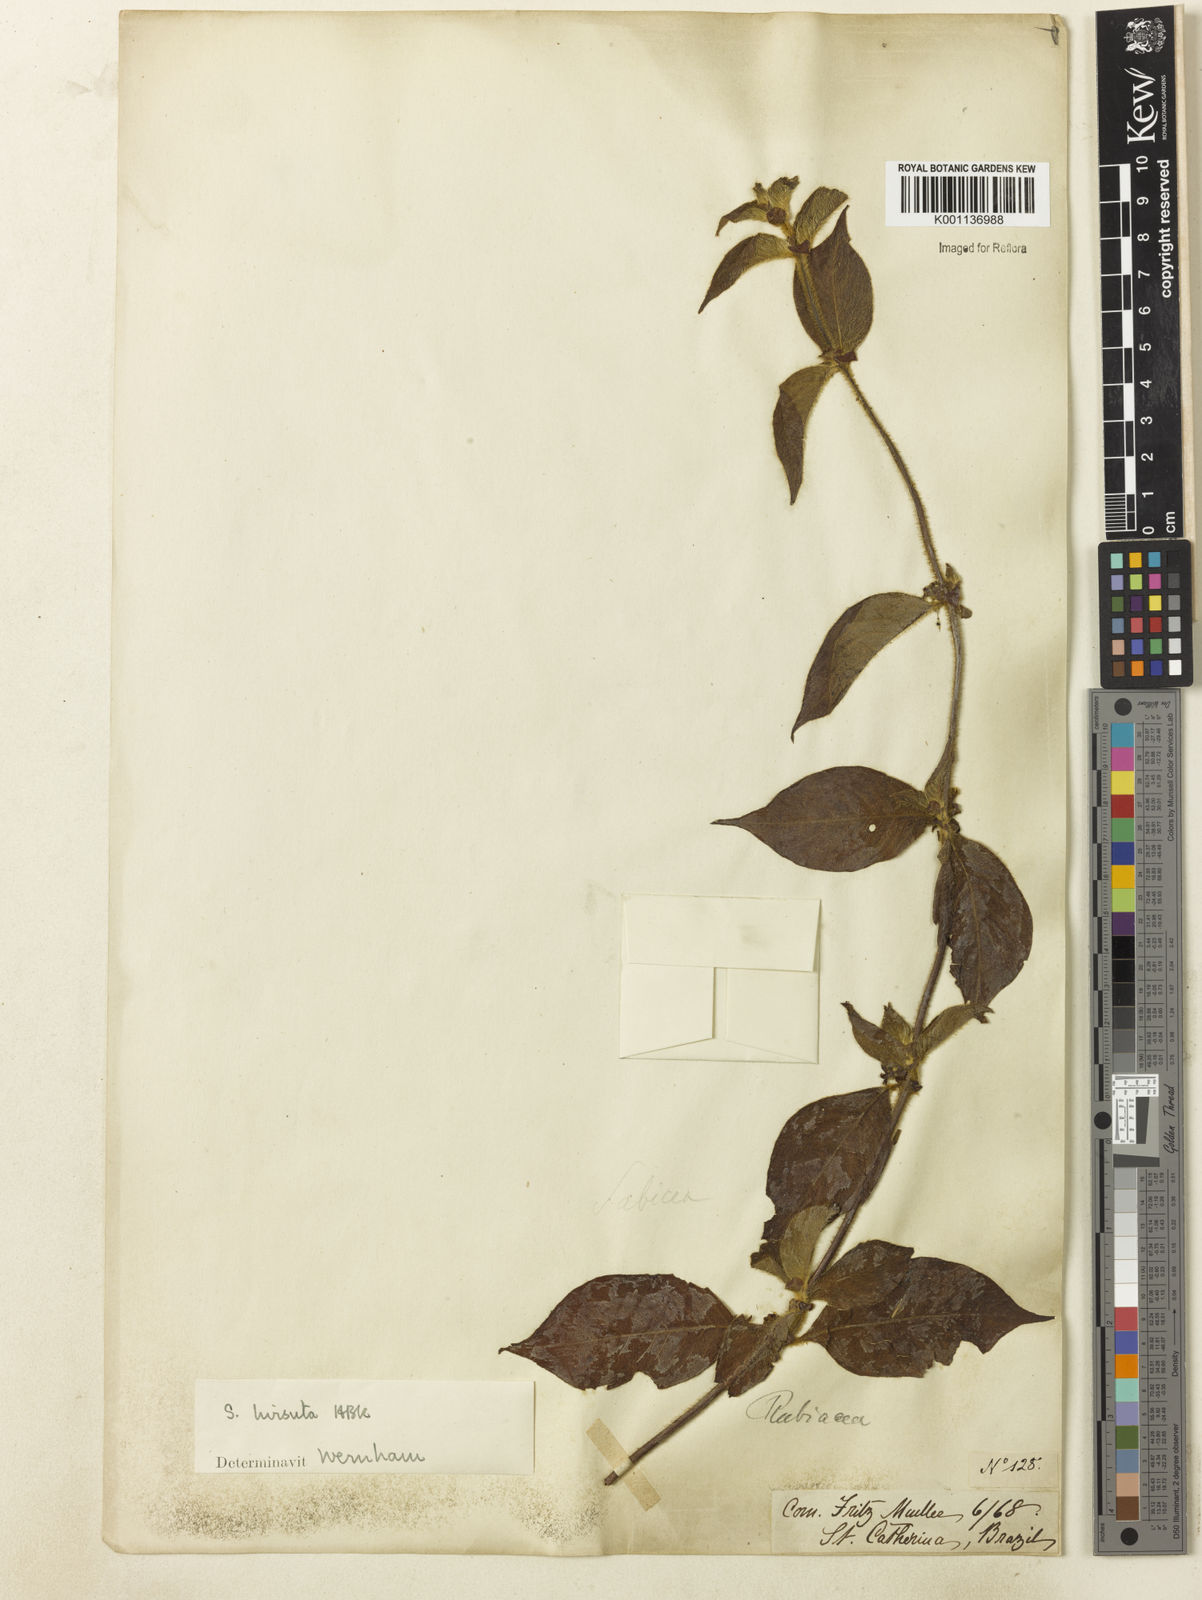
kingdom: Plantae
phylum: Tracheophyta
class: Magnoliopsida
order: Gentianales
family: Rubiaceae
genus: Sabicea
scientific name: Sabicea villosa
